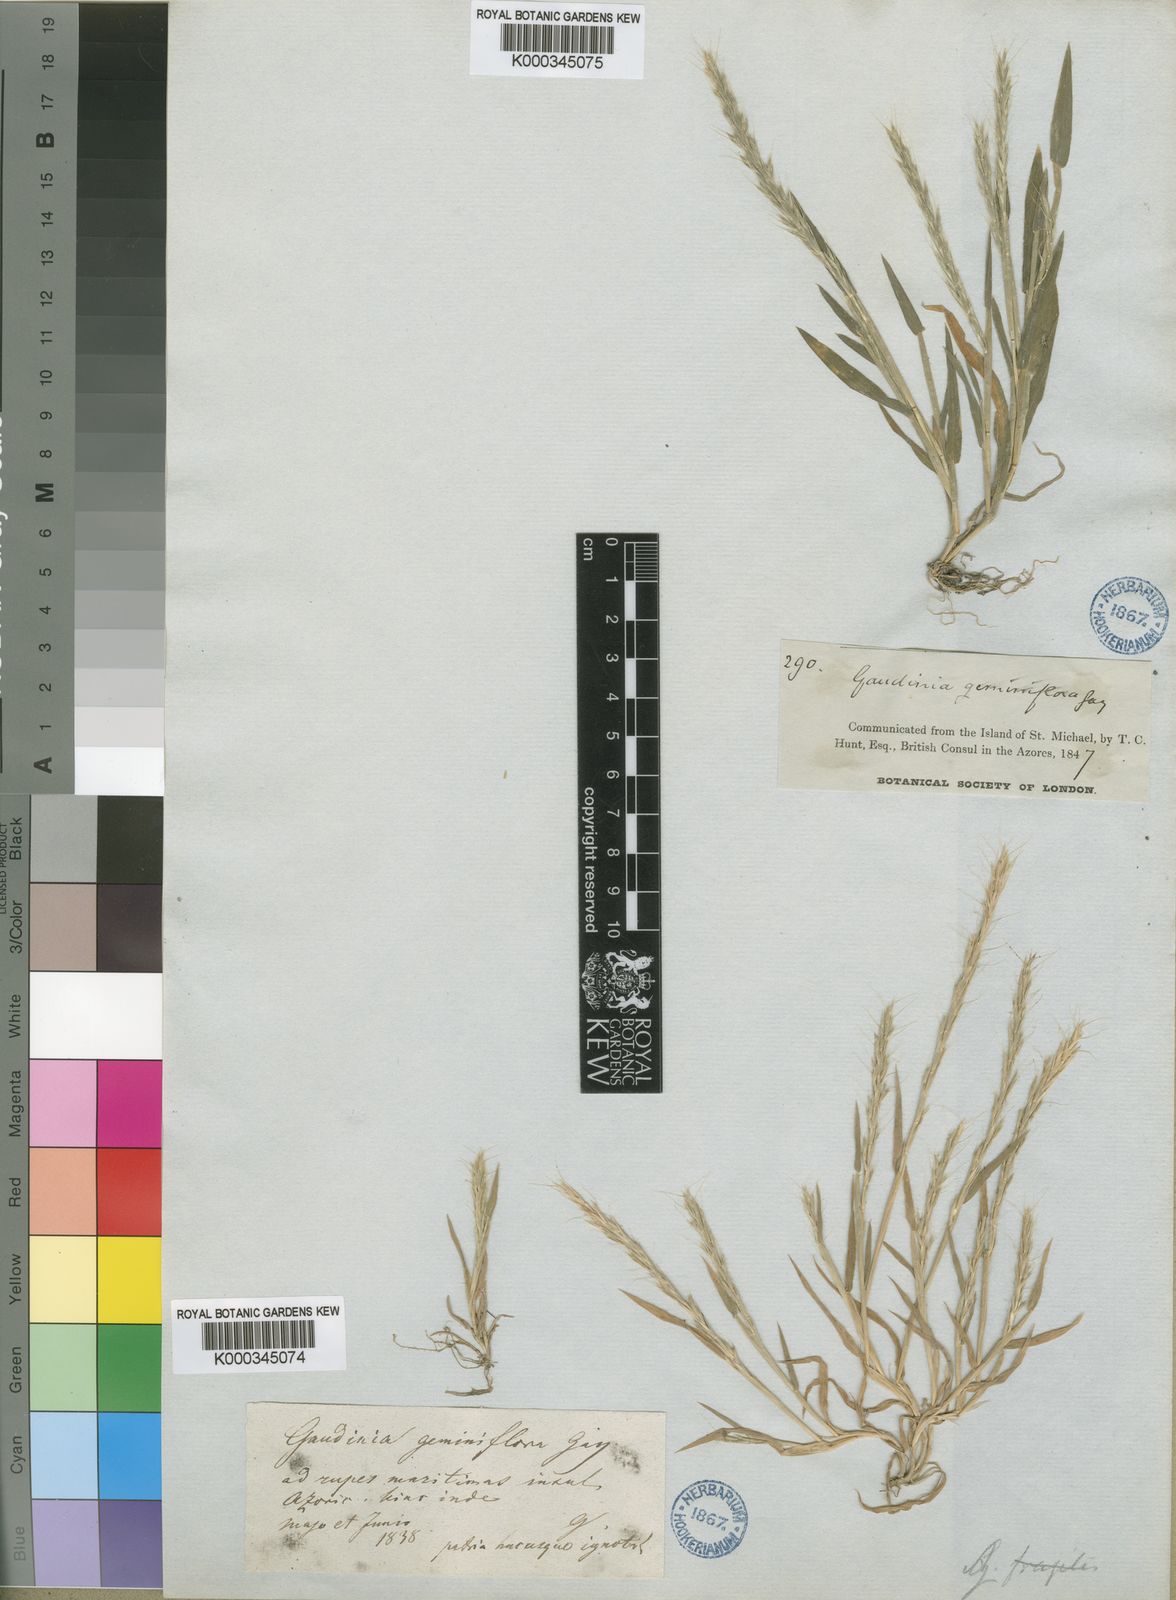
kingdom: Plantae
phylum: Tracheophyta
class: Liliopsida
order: Poales
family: Poaceae
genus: Gaudinia
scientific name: Gaudinia coarctata
